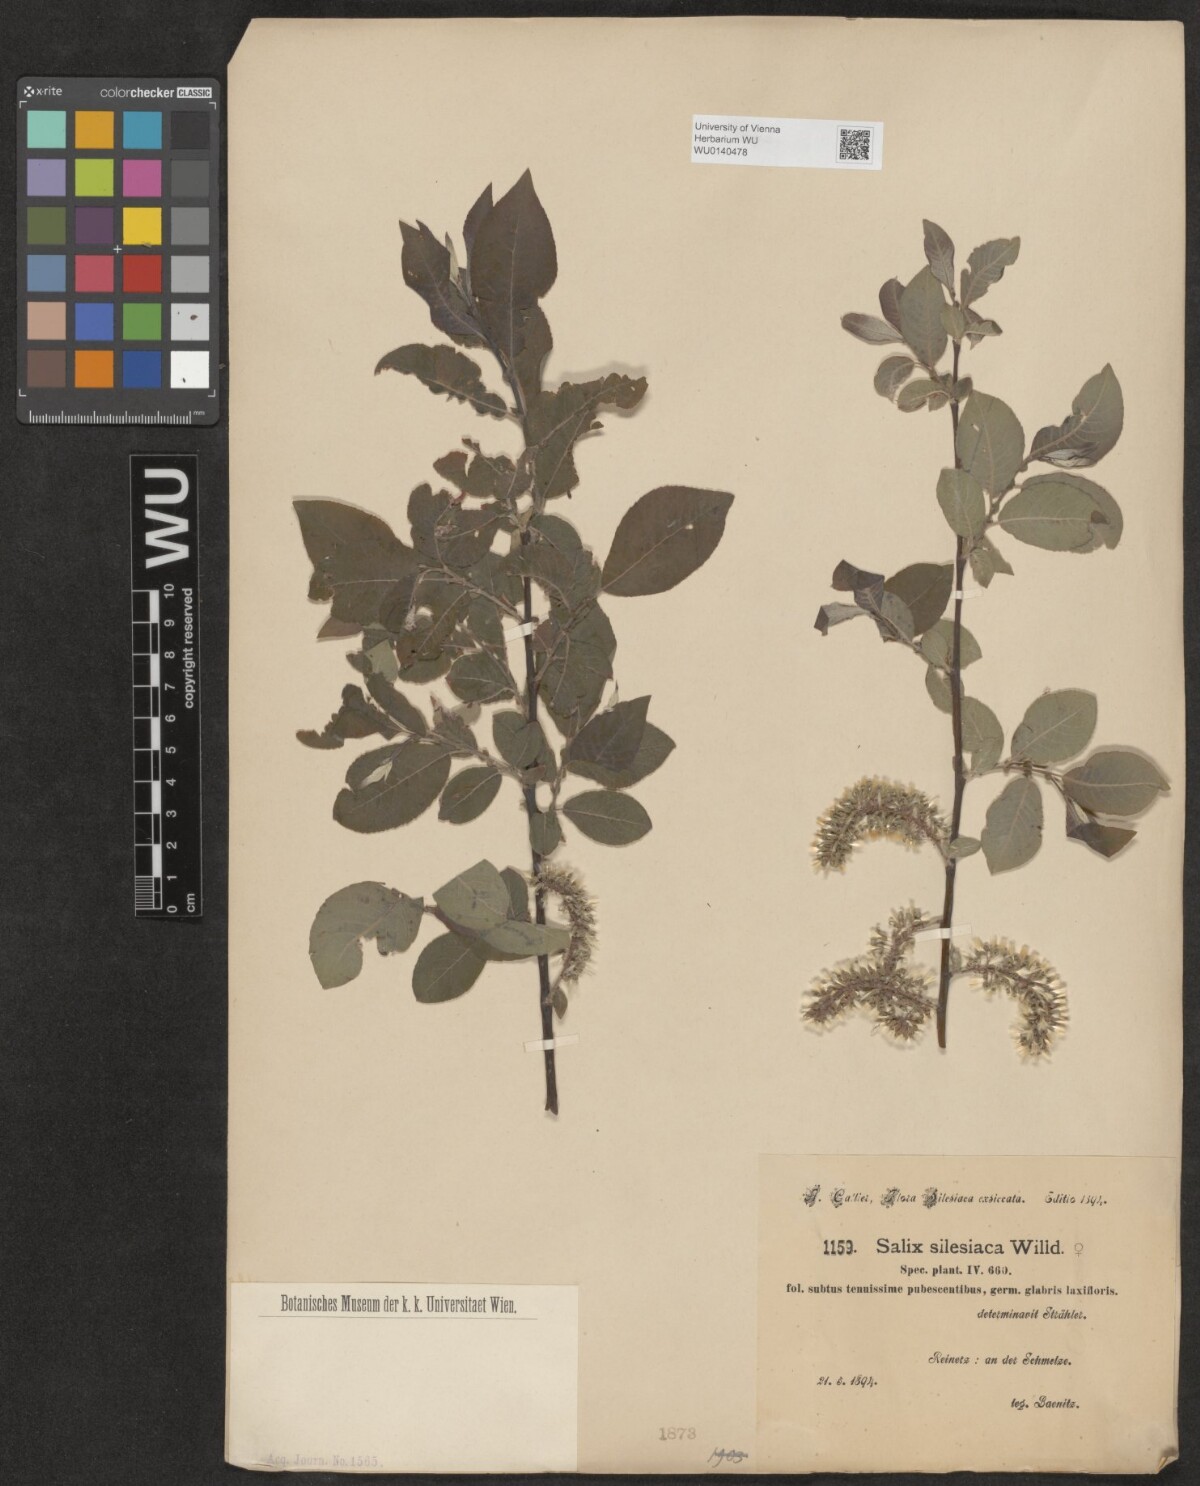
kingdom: Plantae
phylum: Tracheophyta
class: Magnoliopsida
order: Malpighiales
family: Salicaceae
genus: Salix
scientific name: Salix silesiaca
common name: Silesian willow
